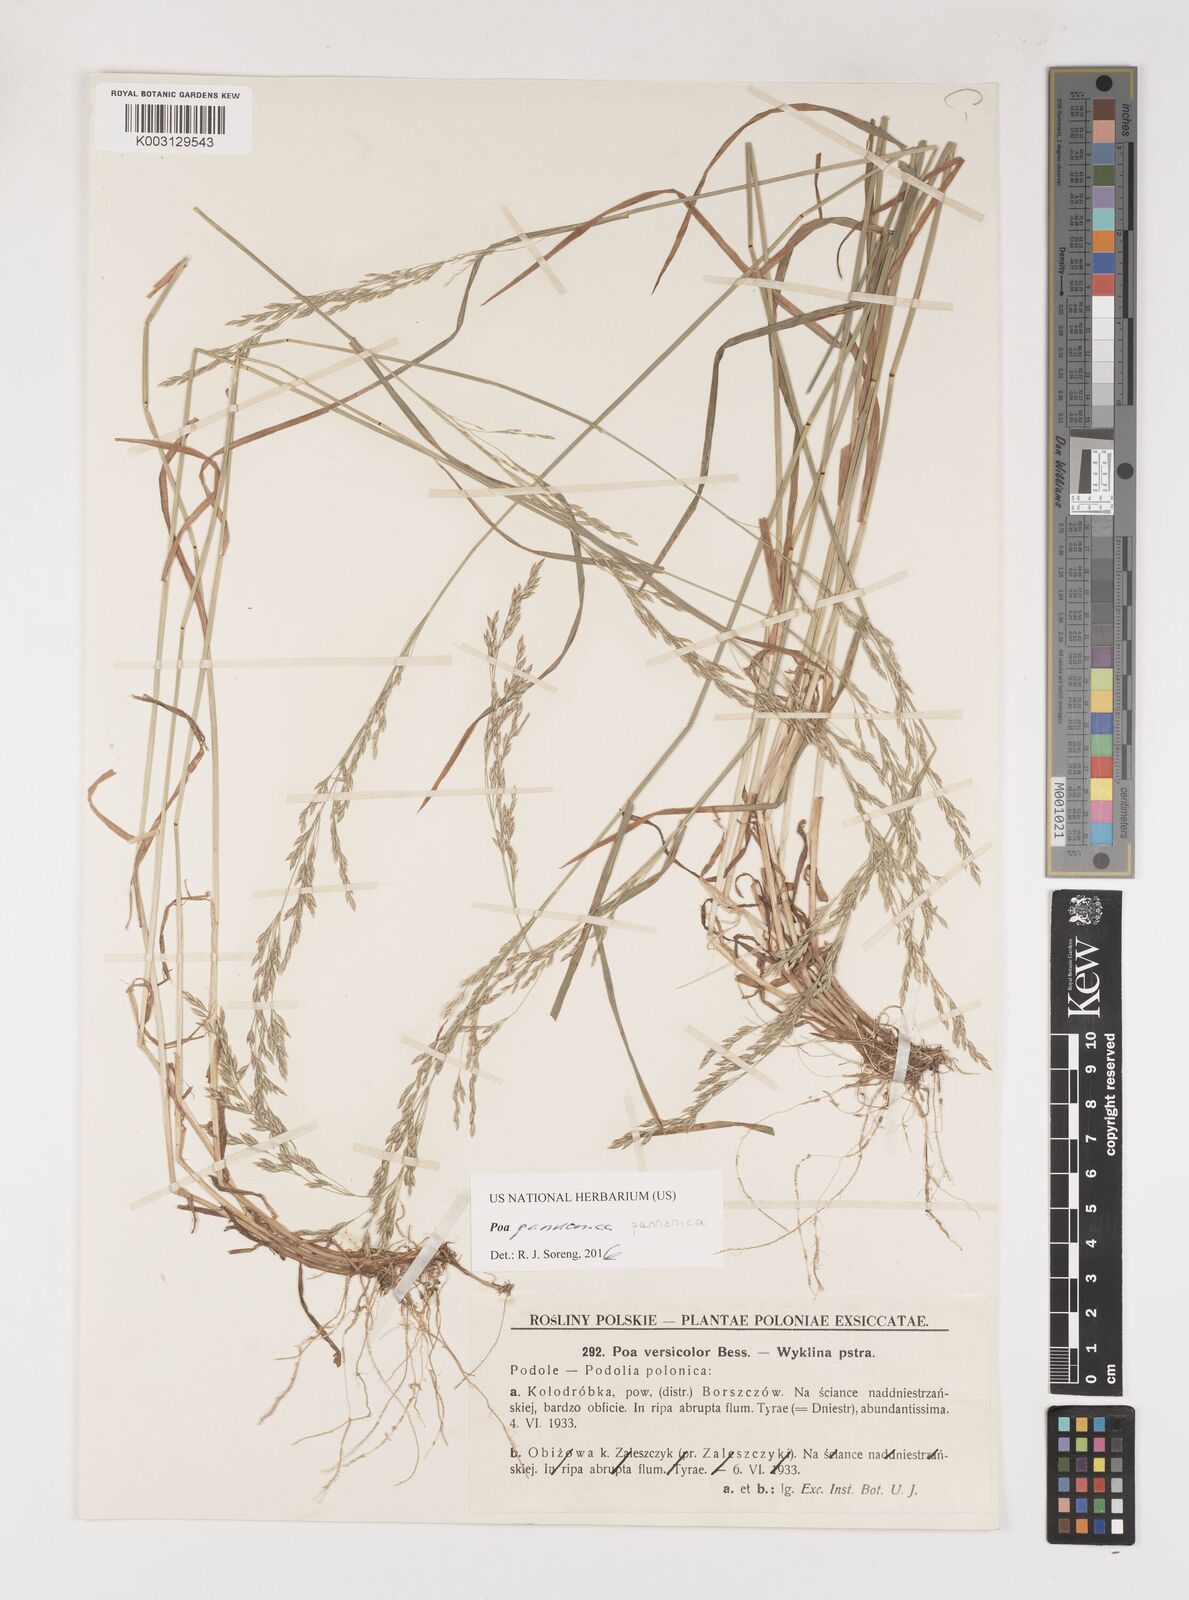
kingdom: Plantae
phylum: Tracheophyta
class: Liliopsida
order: Poales
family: Poaceae
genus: Poa
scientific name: Poa pannonica
